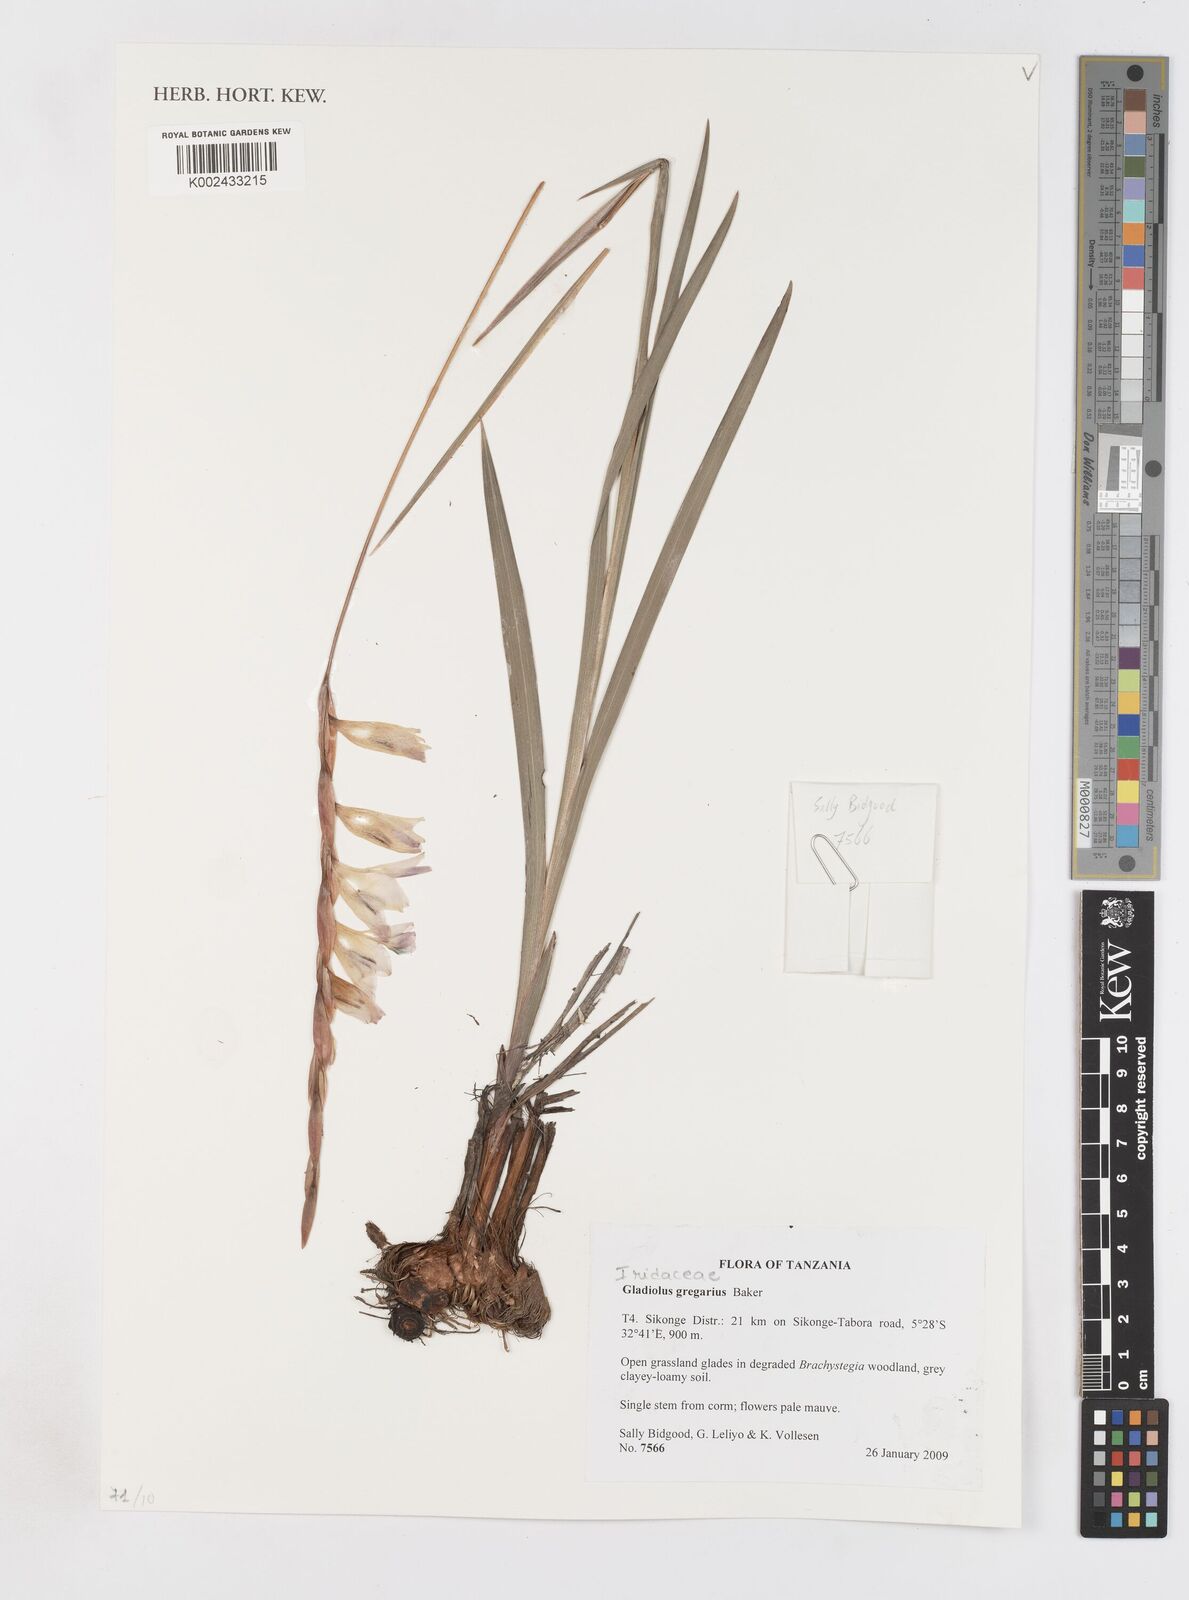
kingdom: Plantae
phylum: Tracheophyta
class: Liliopsida
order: Asparagales
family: Iridaceae
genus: Gladiolus
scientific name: Gladiolus gregarius
